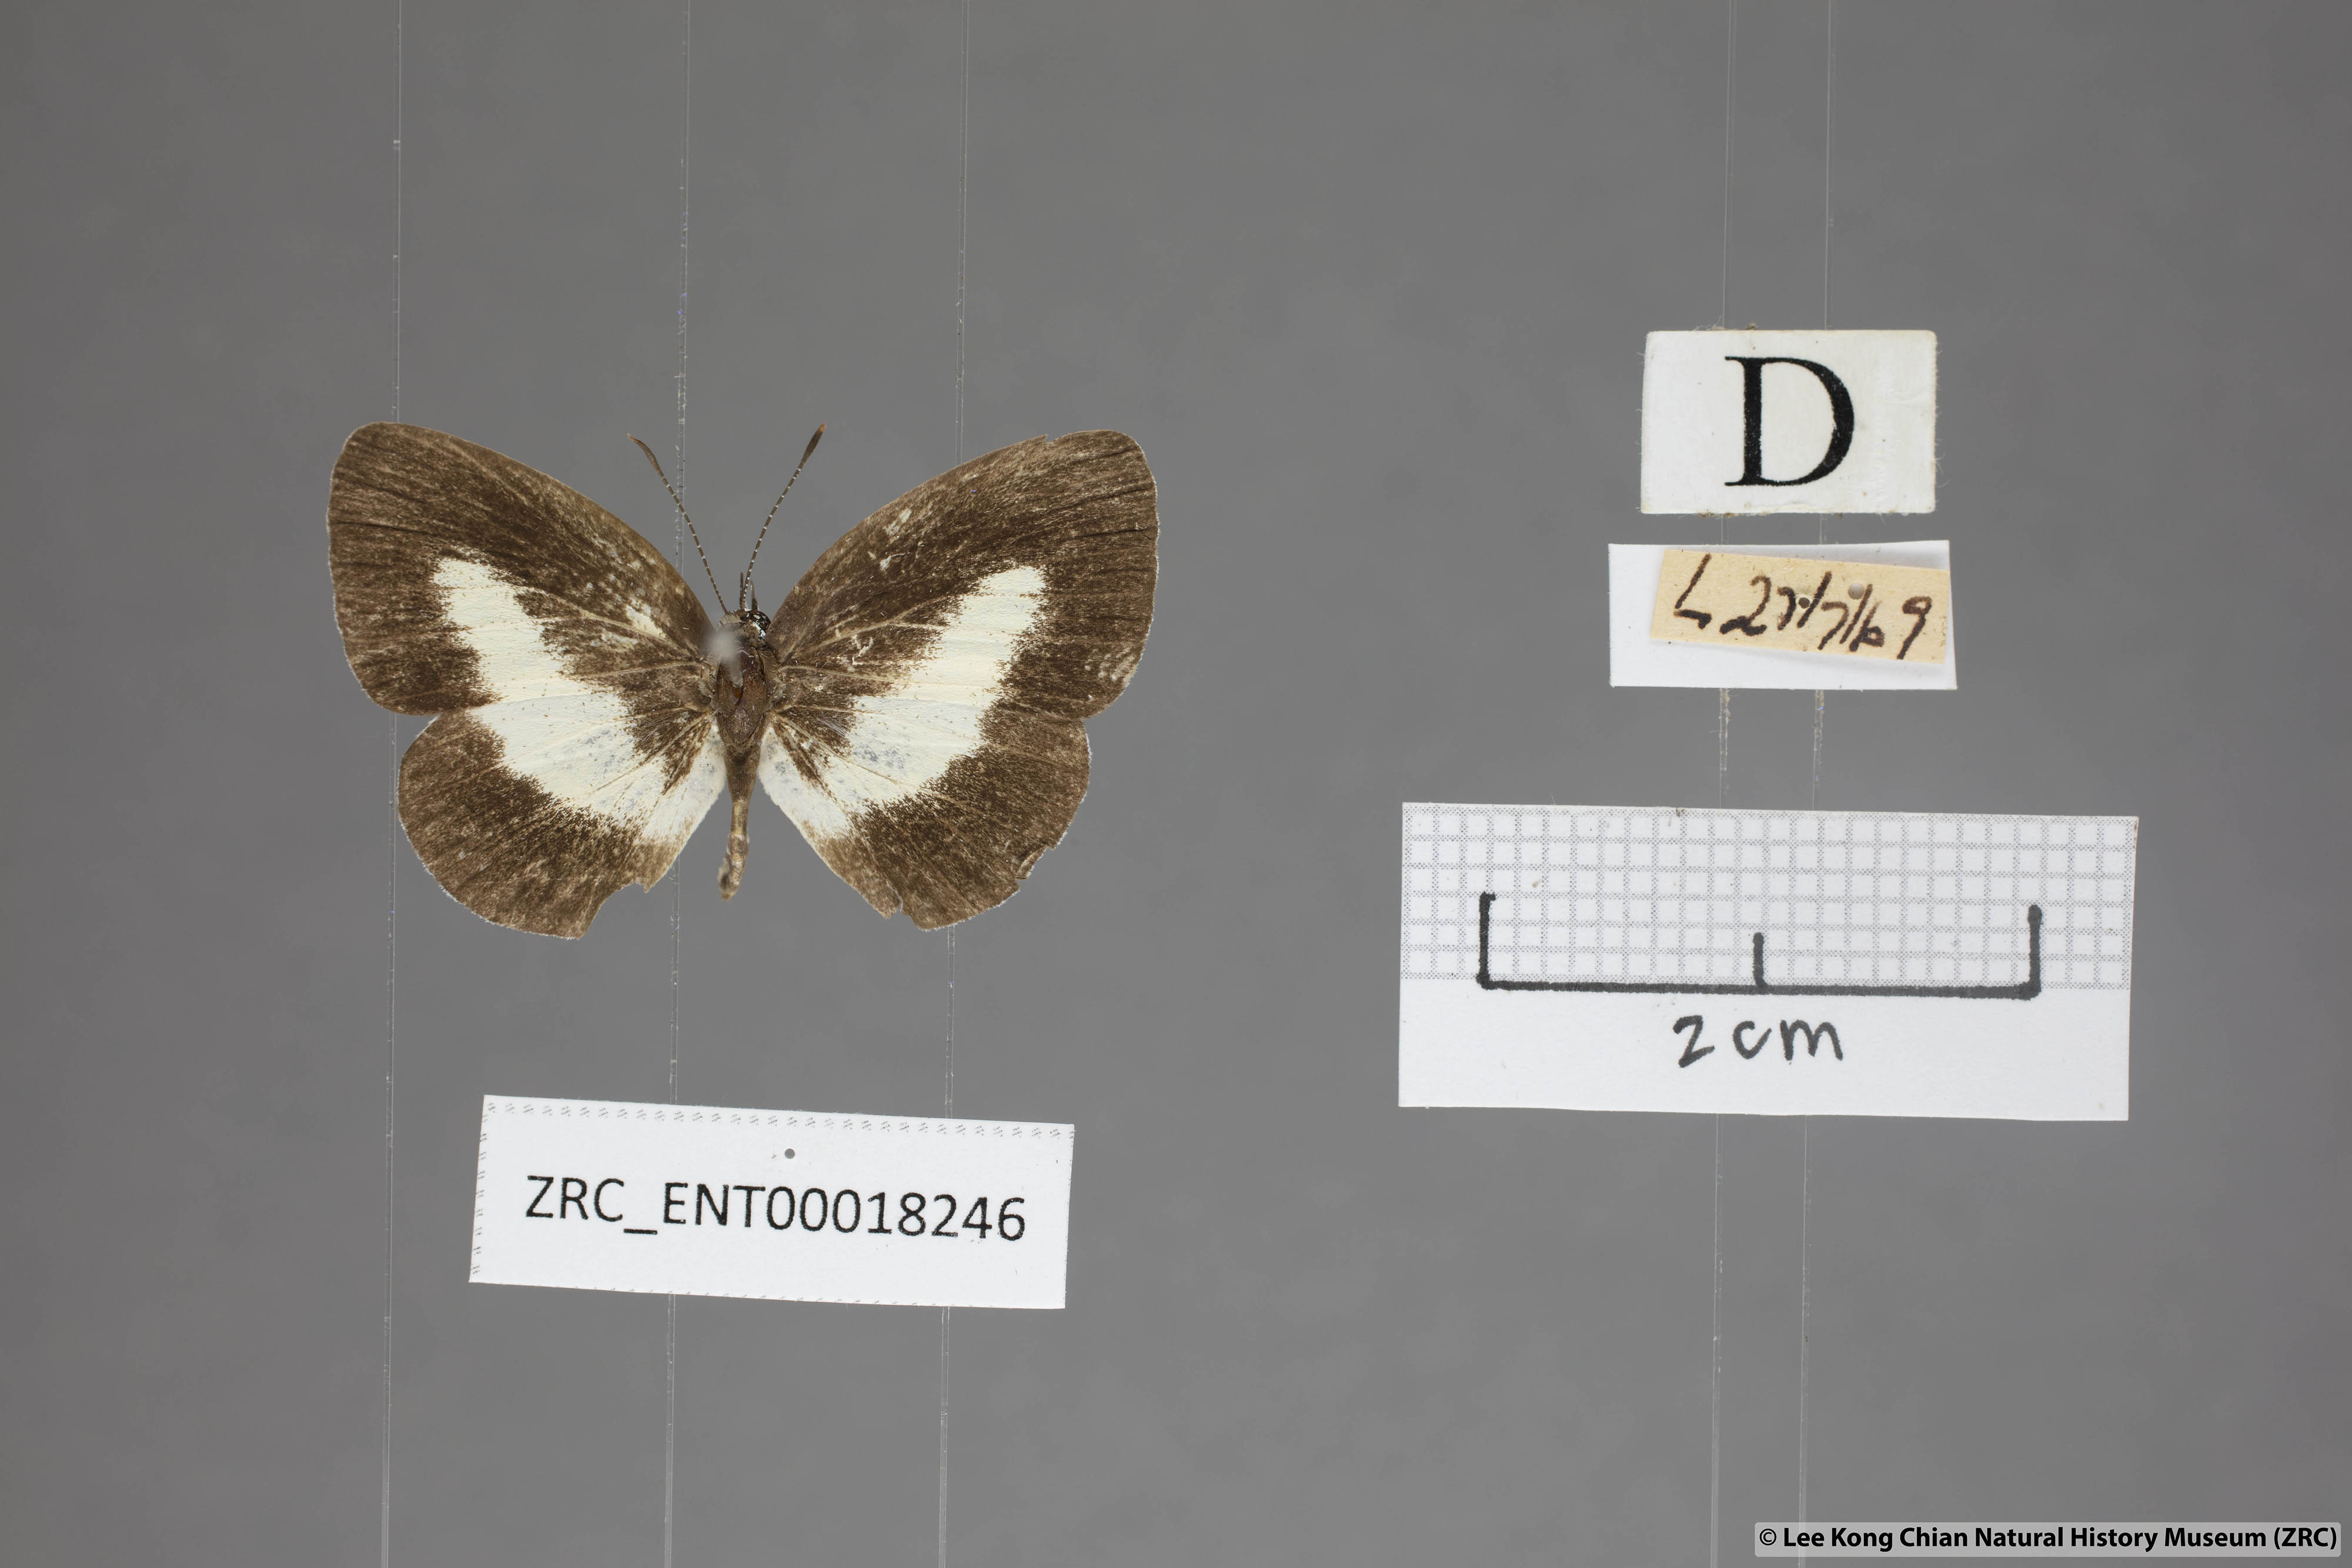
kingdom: Animalia
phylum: Arthropoda
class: Insecta
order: Lepidoptera
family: Lycaenidae
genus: Lycaenopsis
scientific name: Lycaenopsis haraldus
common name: Felder's hedge blue
